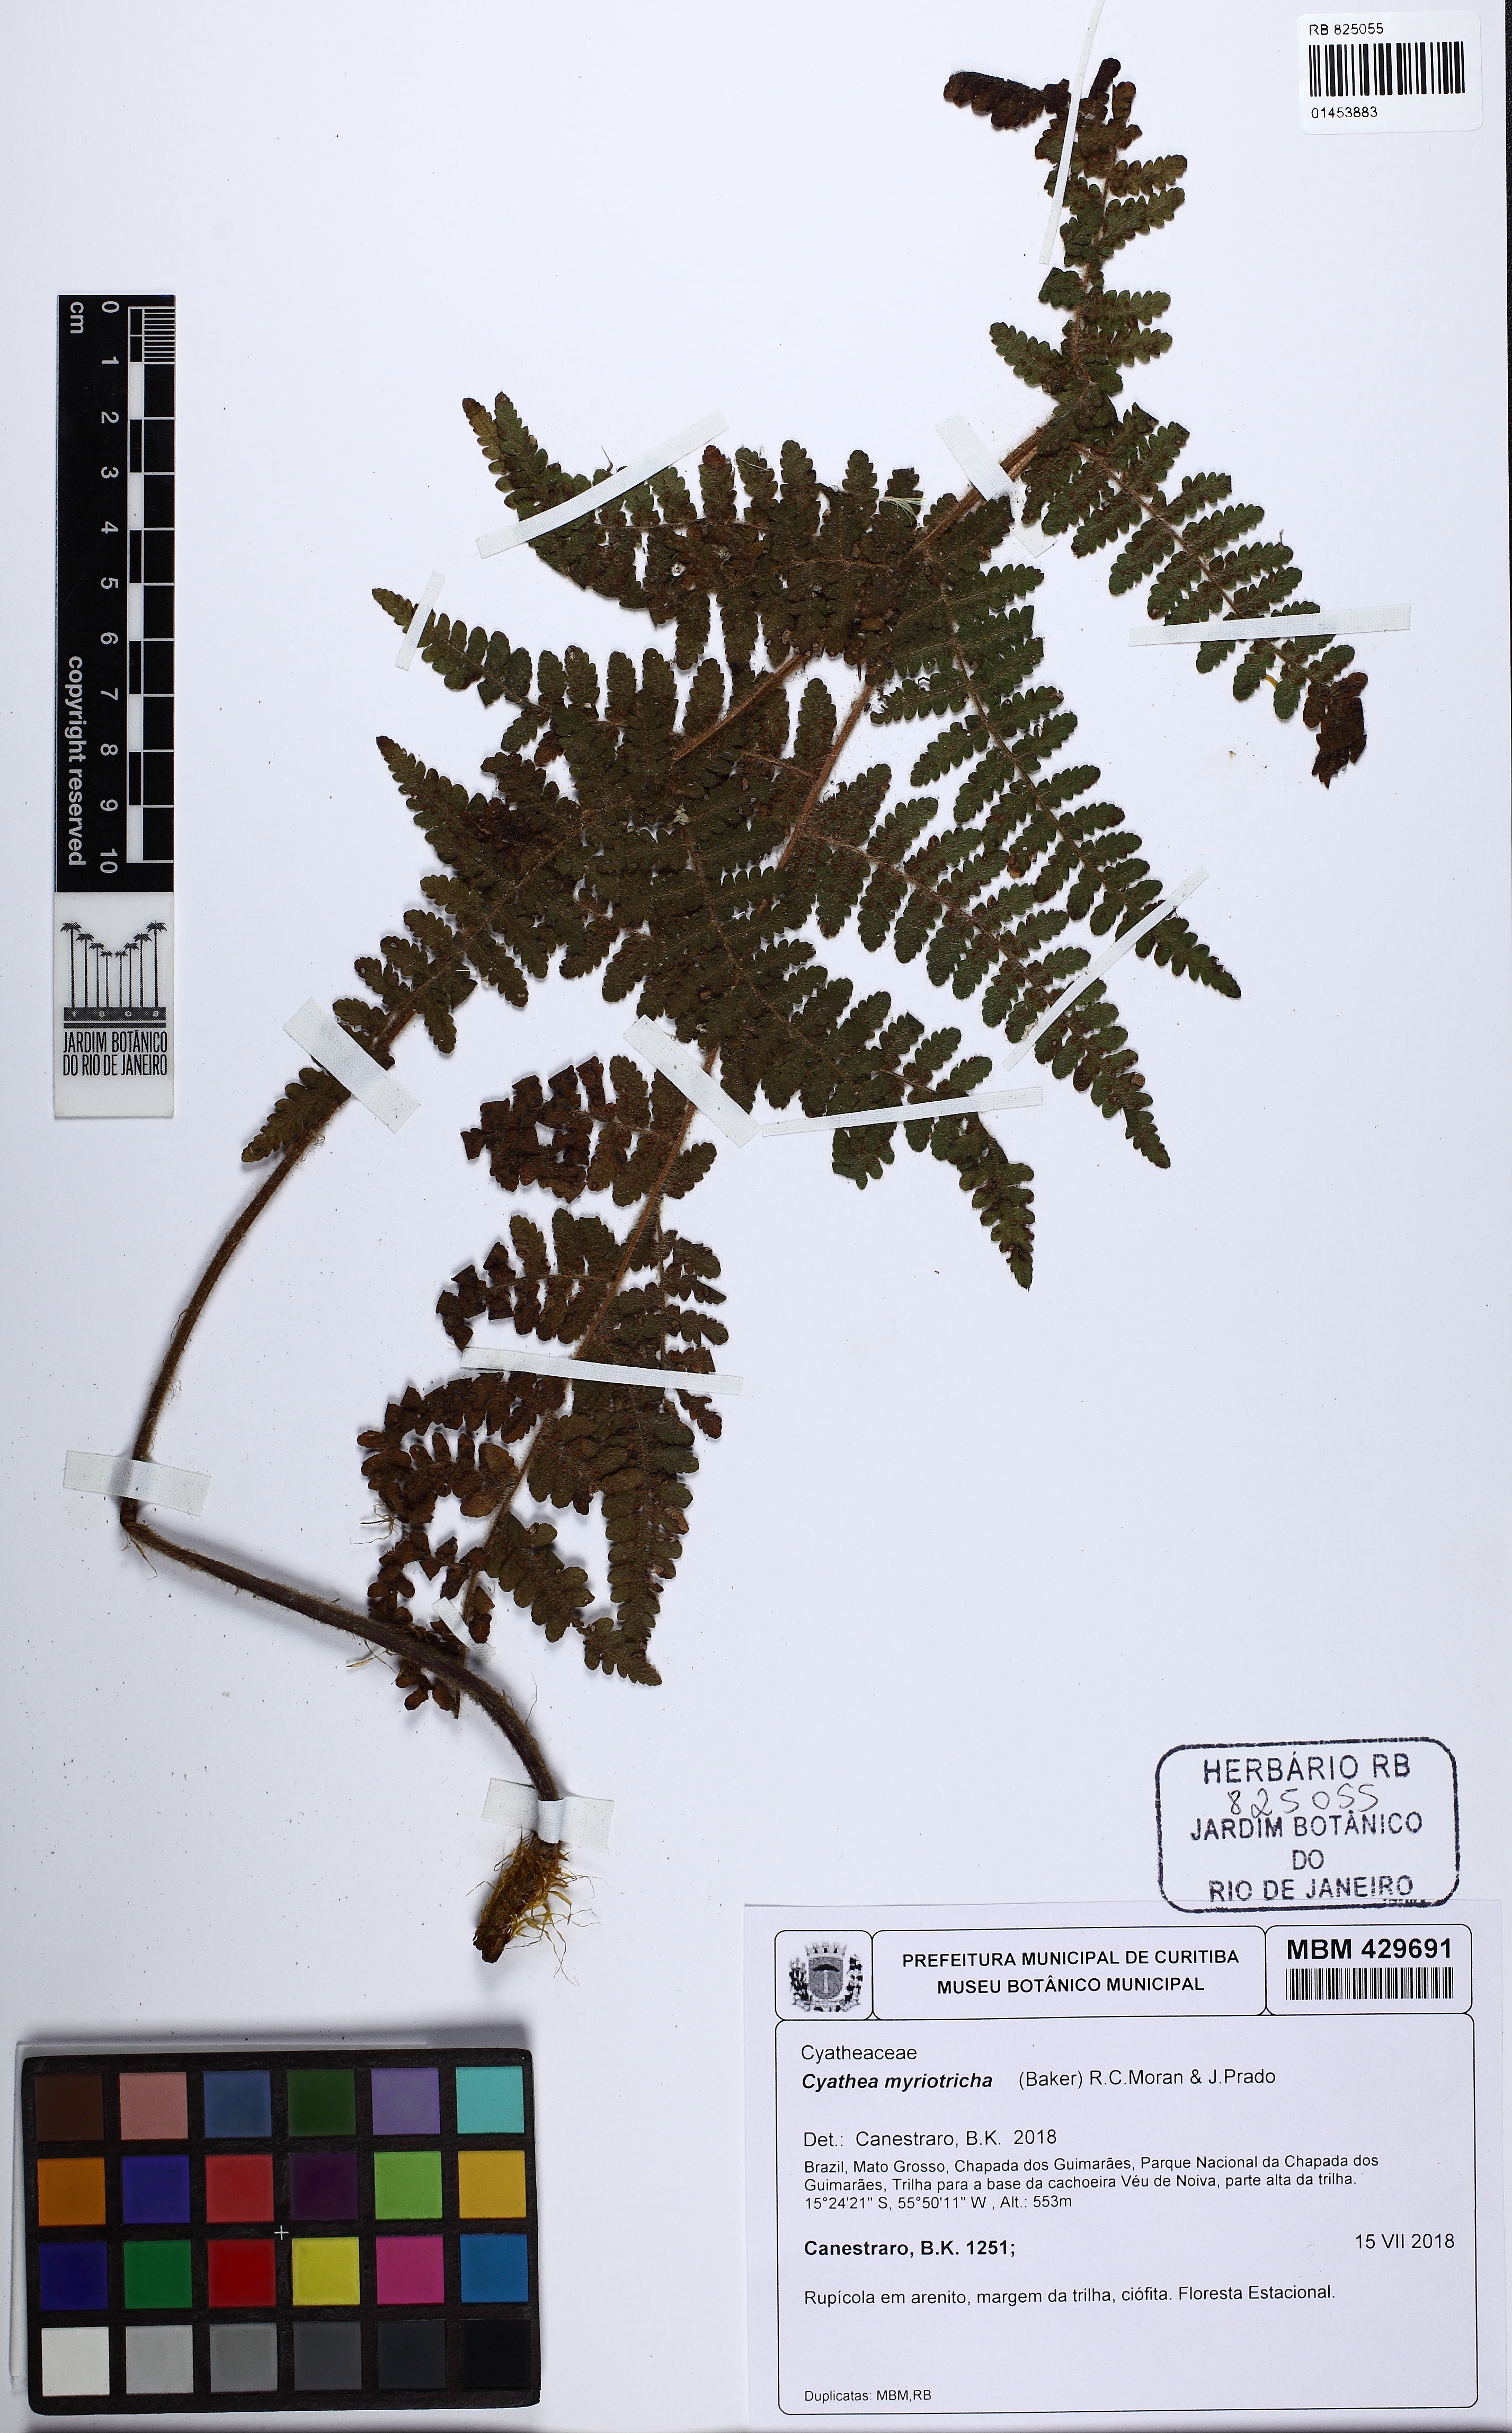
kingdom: Plantae
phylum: Tracheophyta
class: Polypodiopsida
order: Cyatheales
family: Cyatheaceae
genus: Cyathea
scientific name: Cyathea myriotricha
